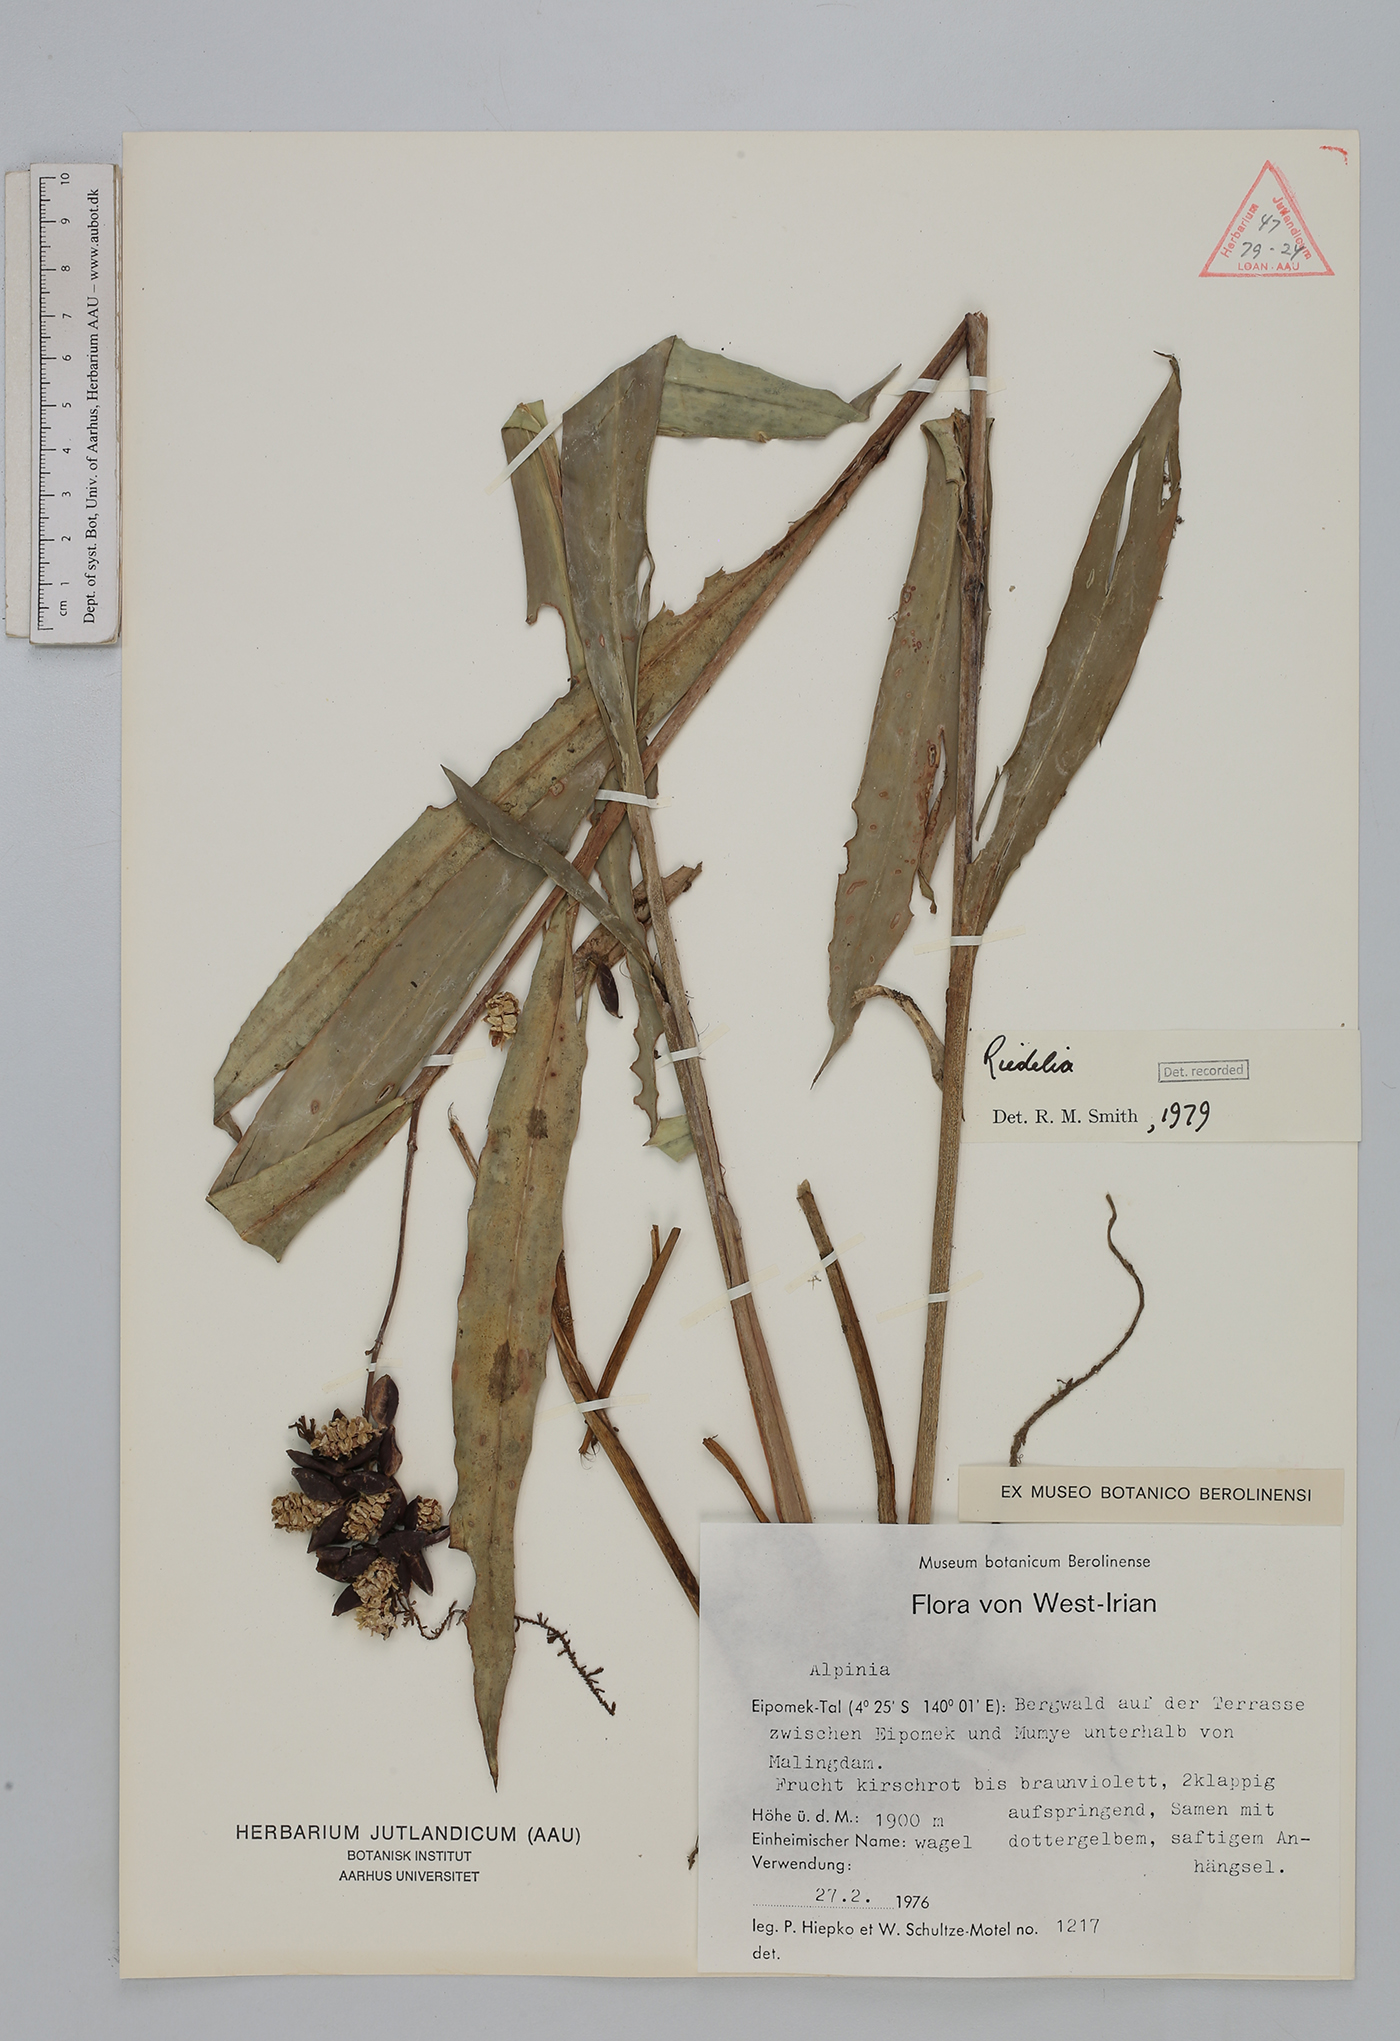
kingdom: Plantae
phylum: Tracheophyta
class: Liliopsida
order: Zingiberales
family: Zingiberaceae
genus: Riedelia
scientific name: Riedelia
